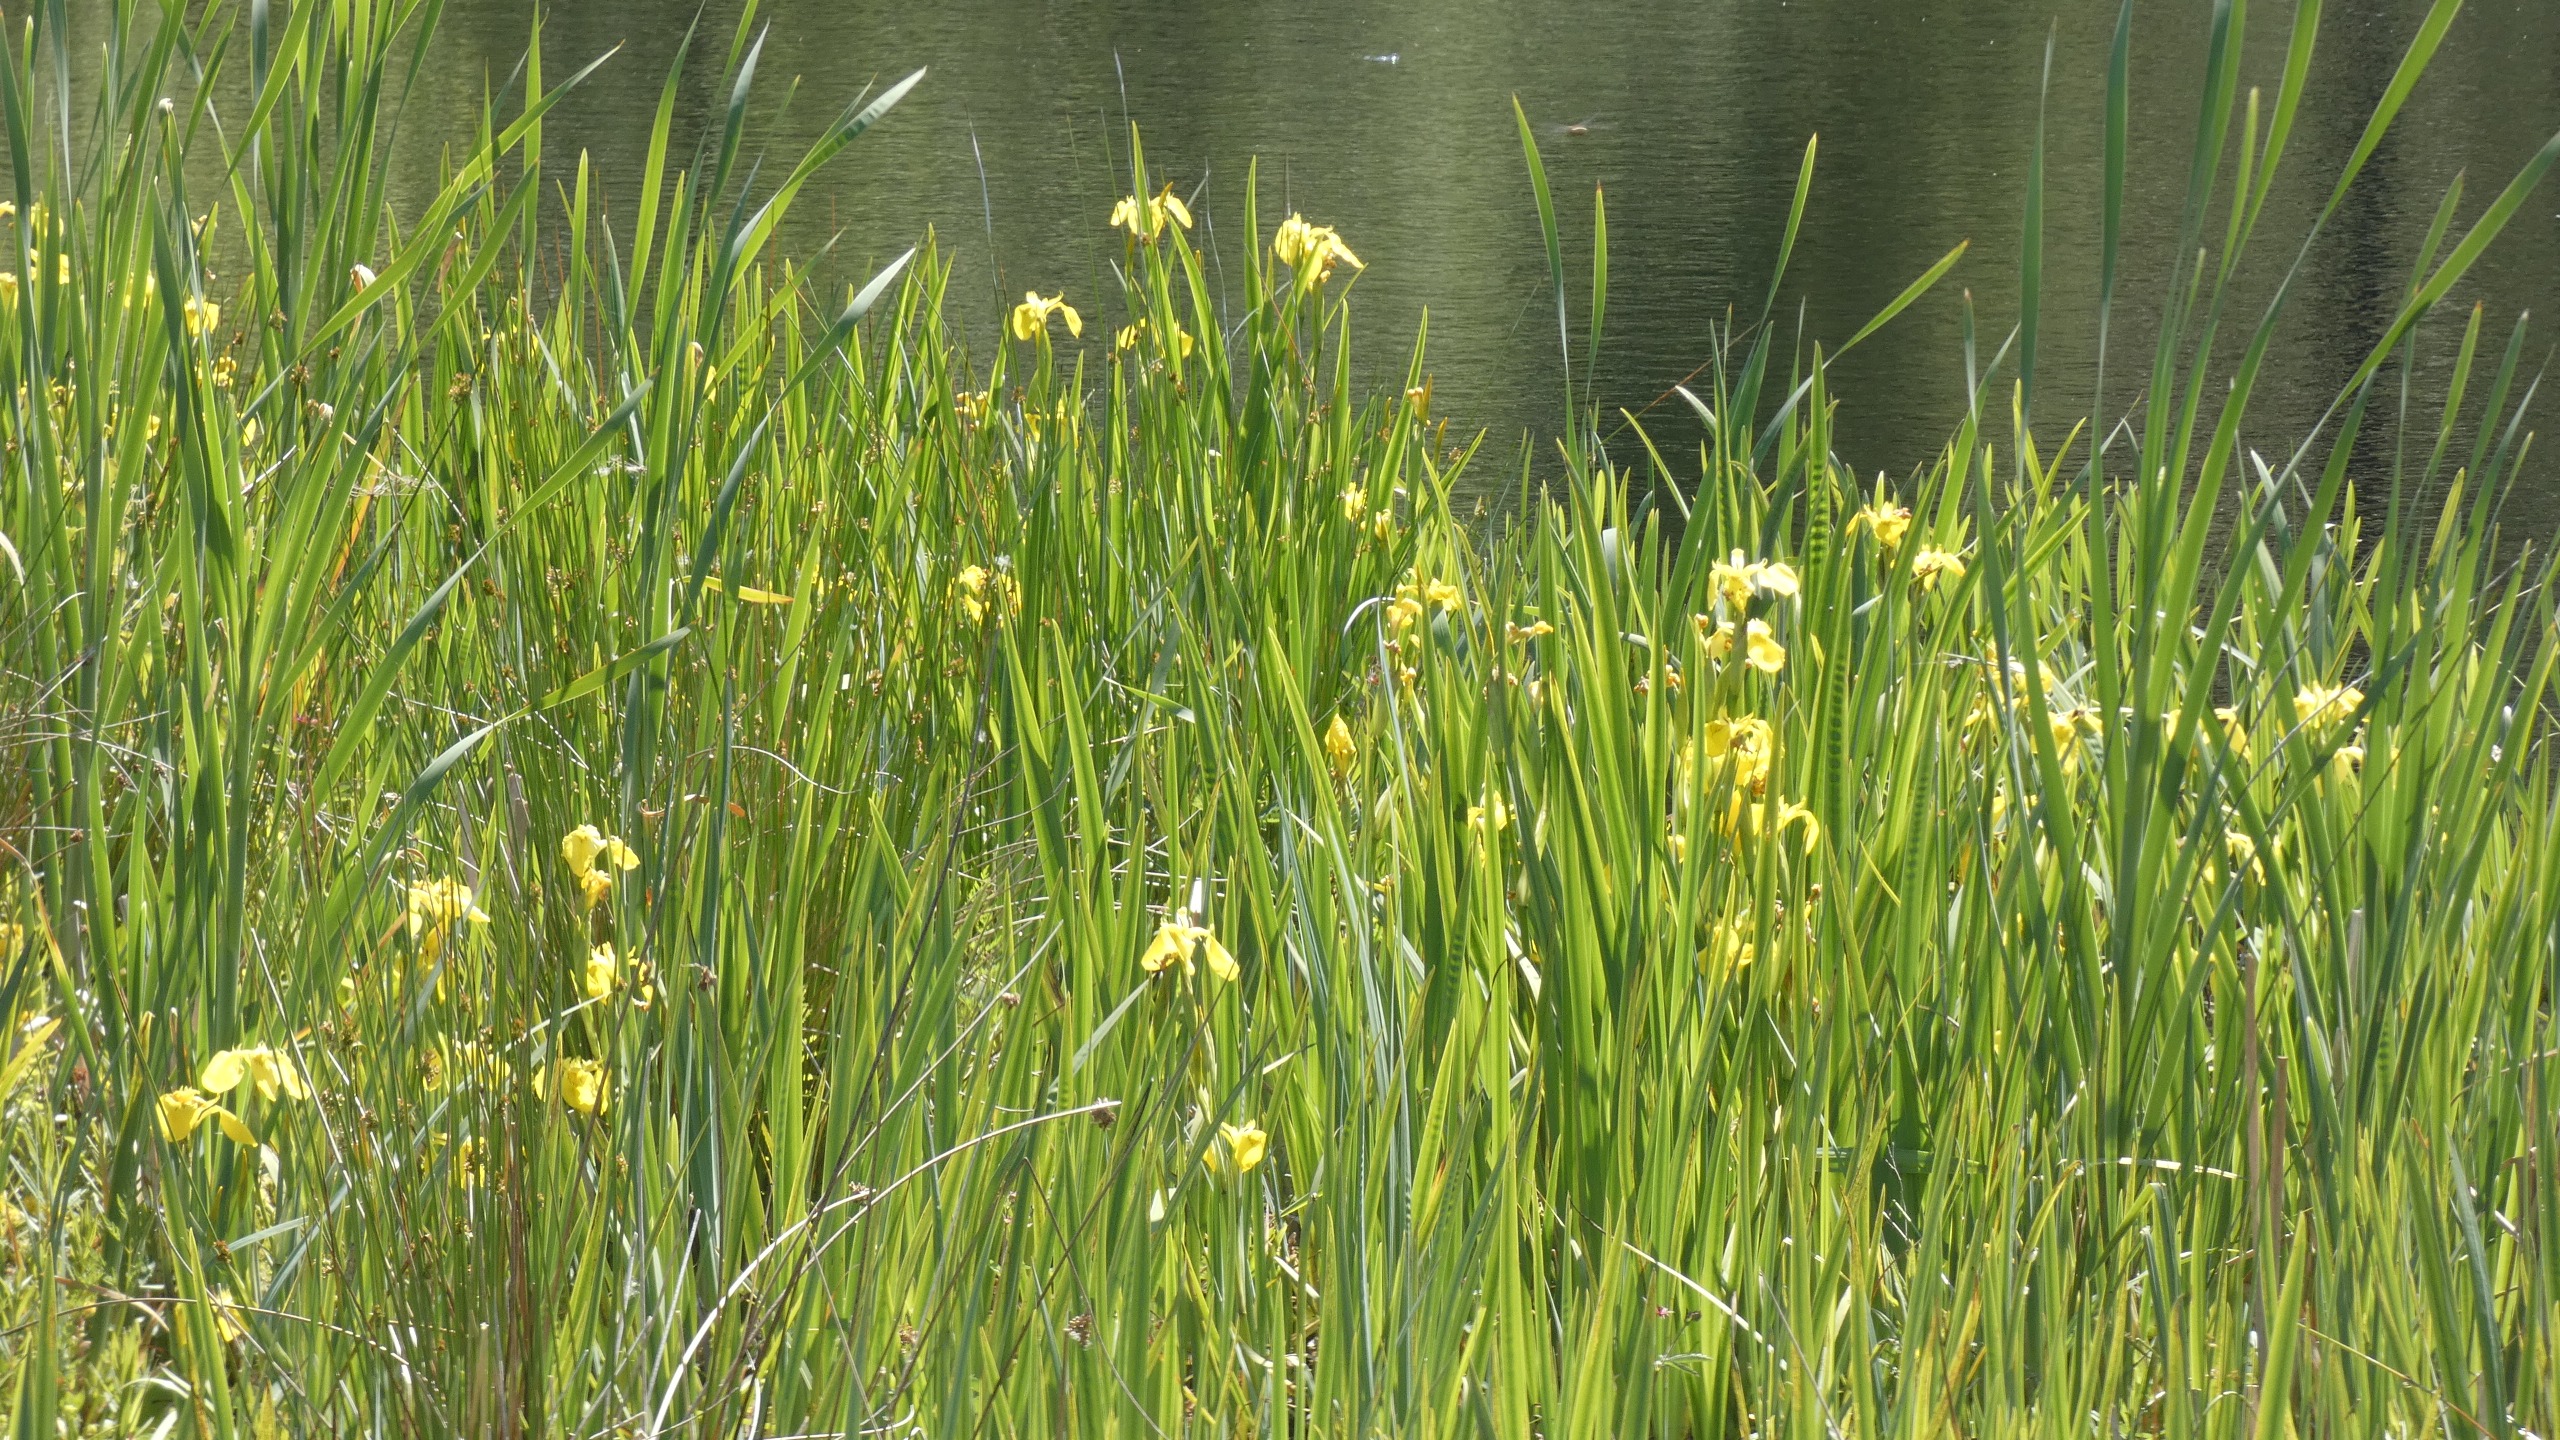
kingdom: Plantae
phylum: Tracheophyta
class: Liliopsida
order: Asparagales
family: Iridaceae
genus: Iris
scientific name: Iris pseudacorus
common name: Gul iris
